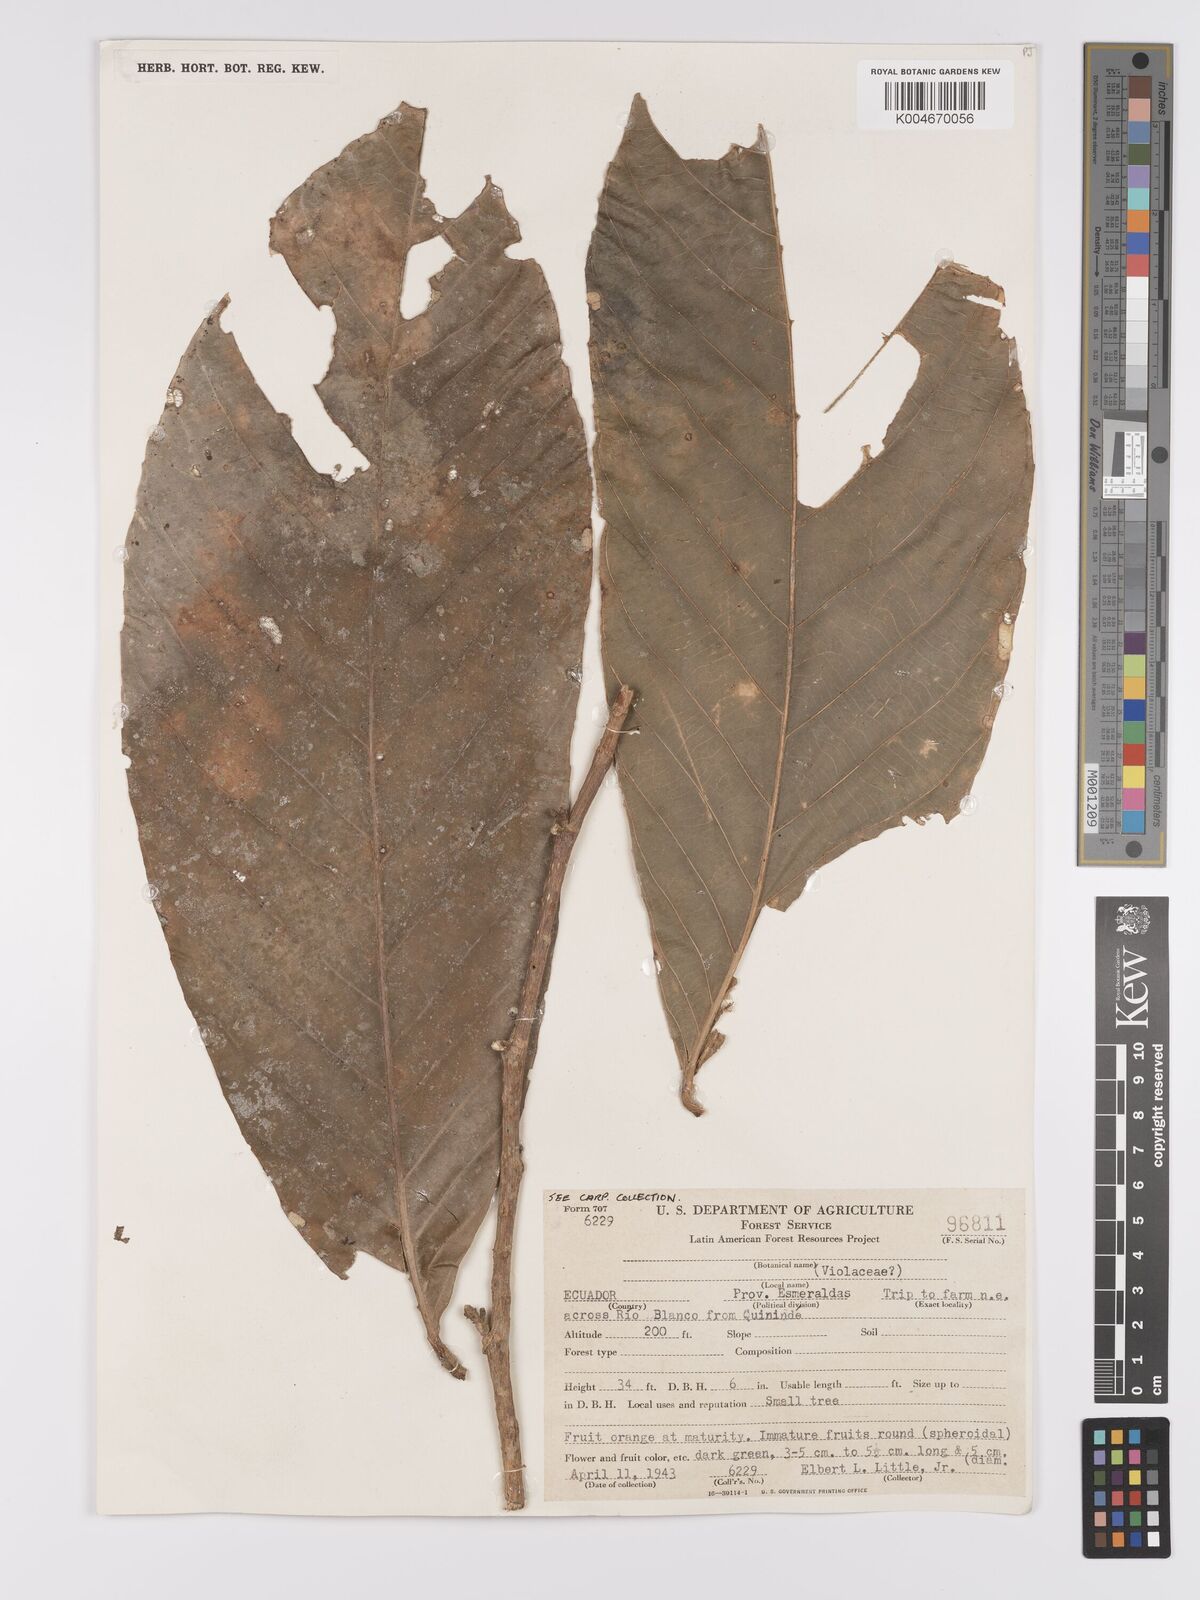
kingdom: Plantae
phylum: Tracheophyta
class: Magnoliopsida
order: Malpighiales
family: Violaceae
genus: Rinorea
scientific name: Rinorea
